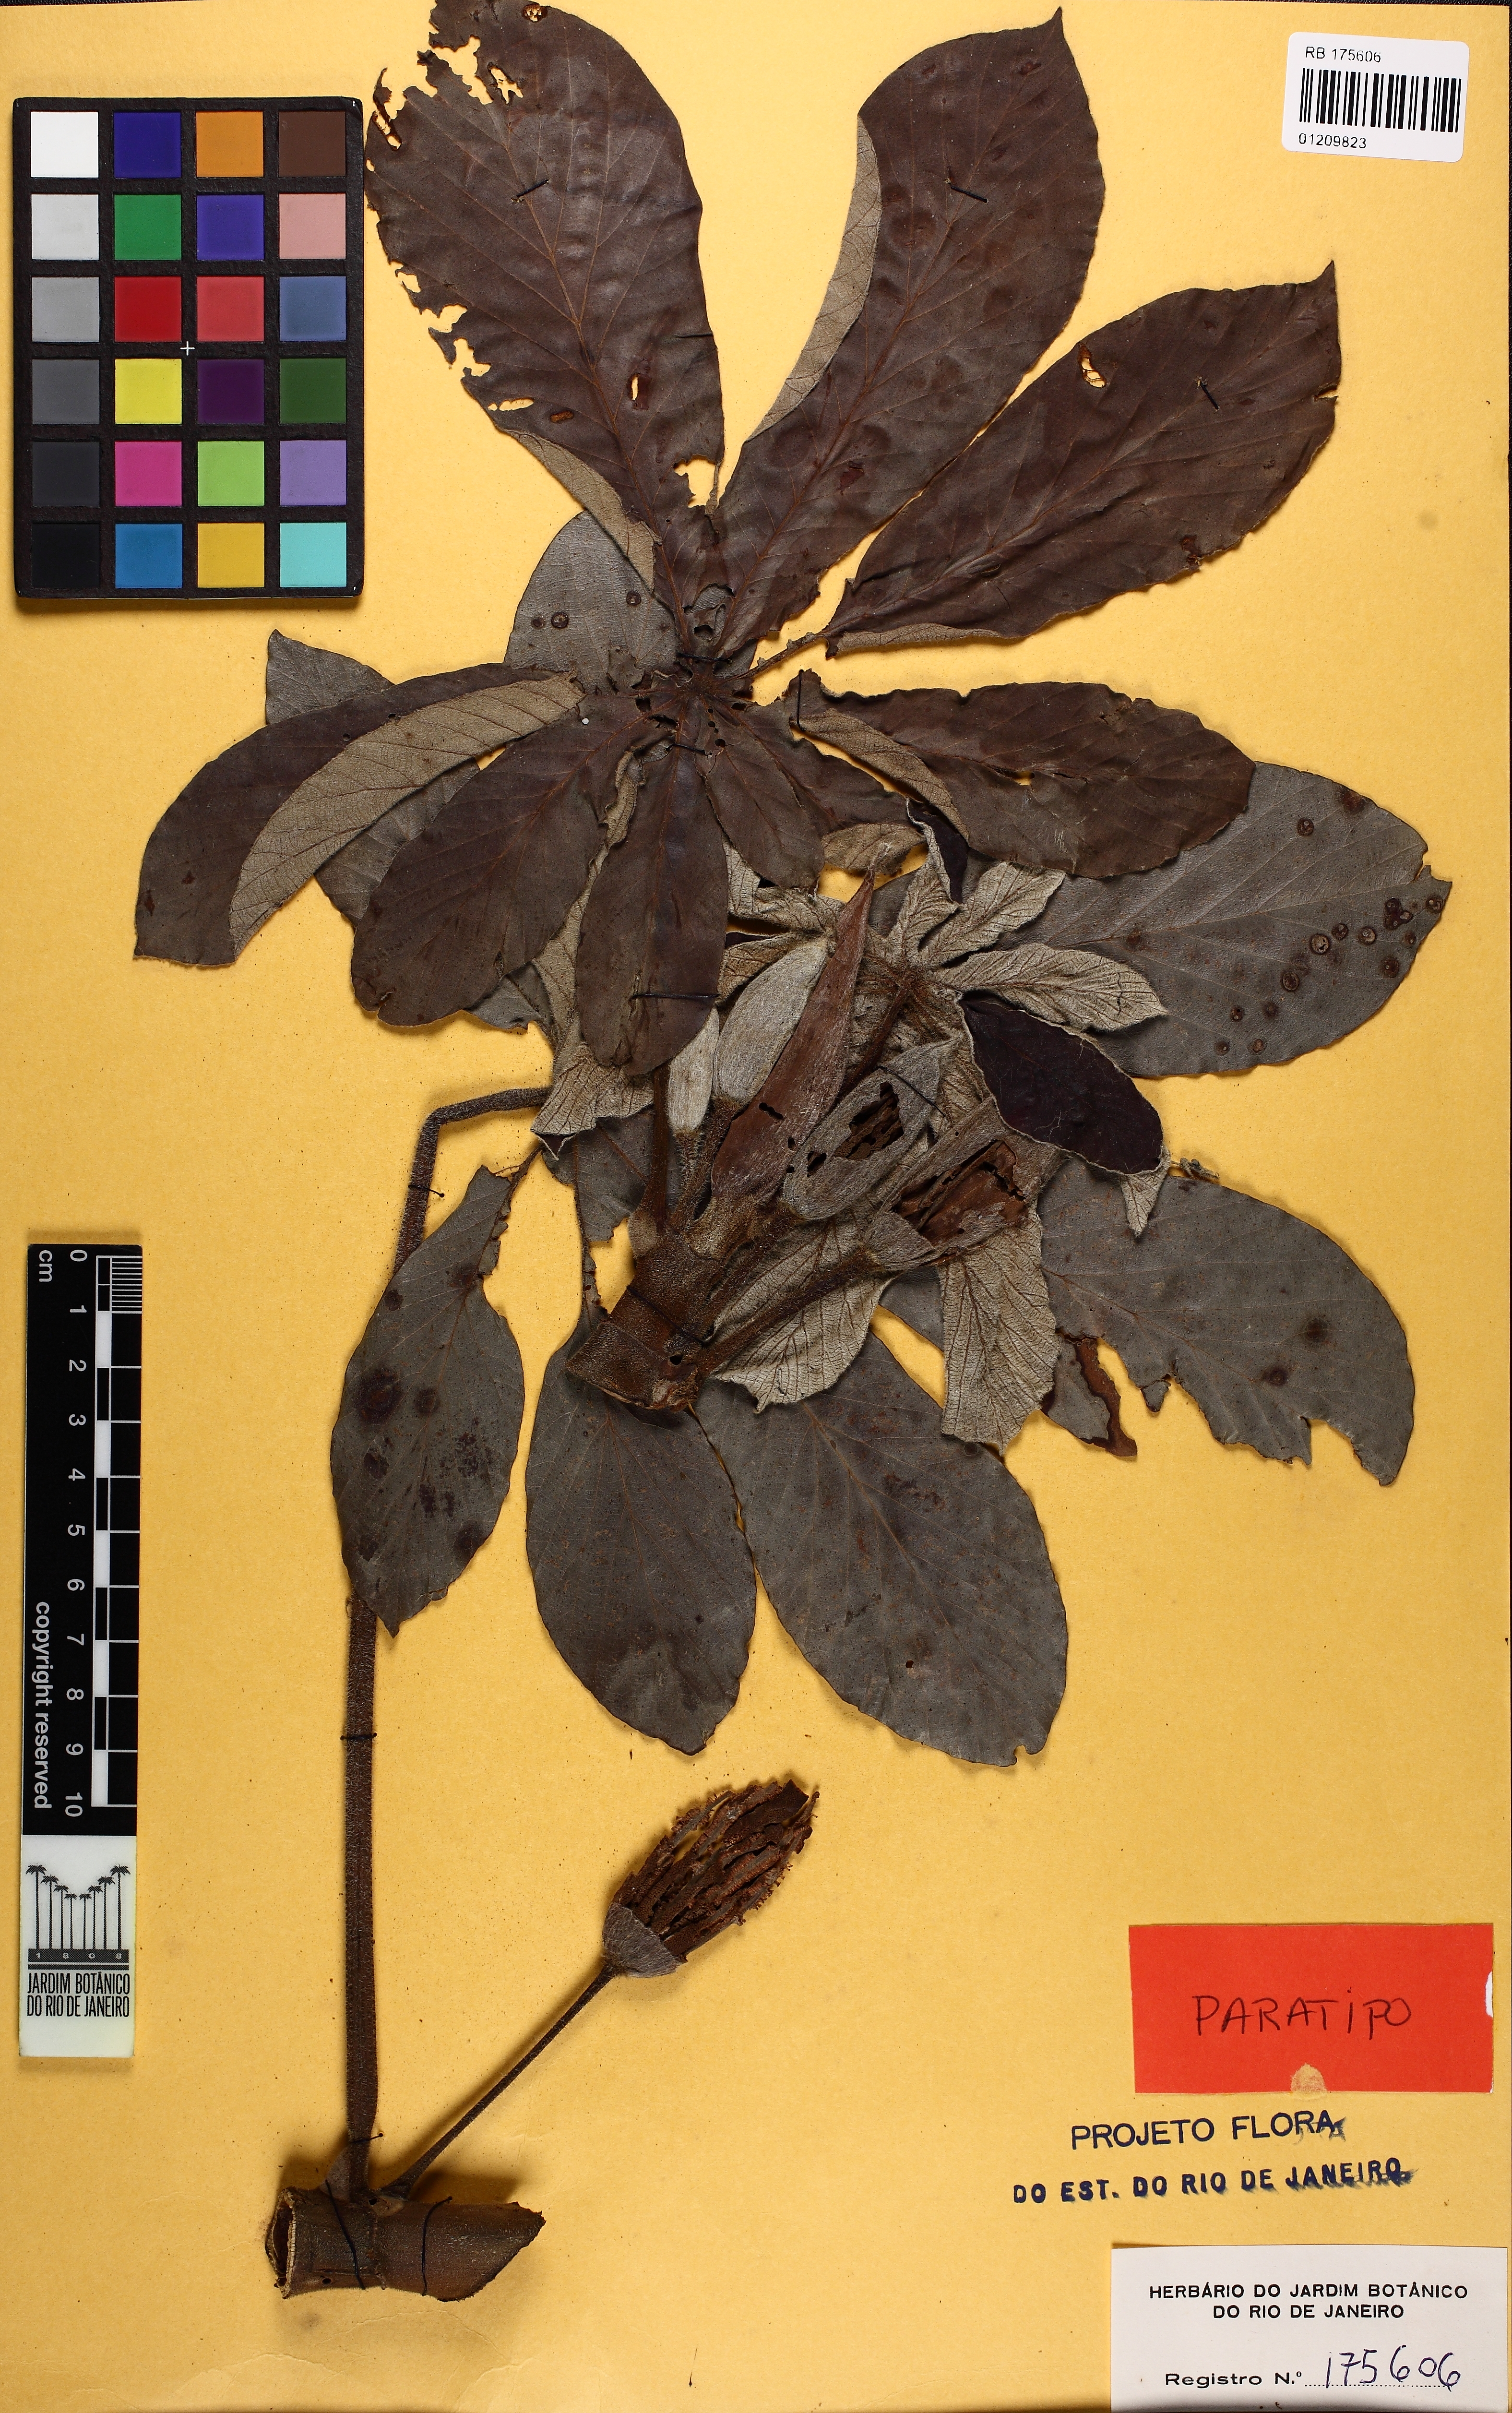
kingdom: Plantae
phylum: Tracheophyta
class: Magnoliopsida
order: Rosales
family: Urticaceae
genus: Cecropia
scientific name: Cecropia pachystachya
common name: Ambay pumpwood
